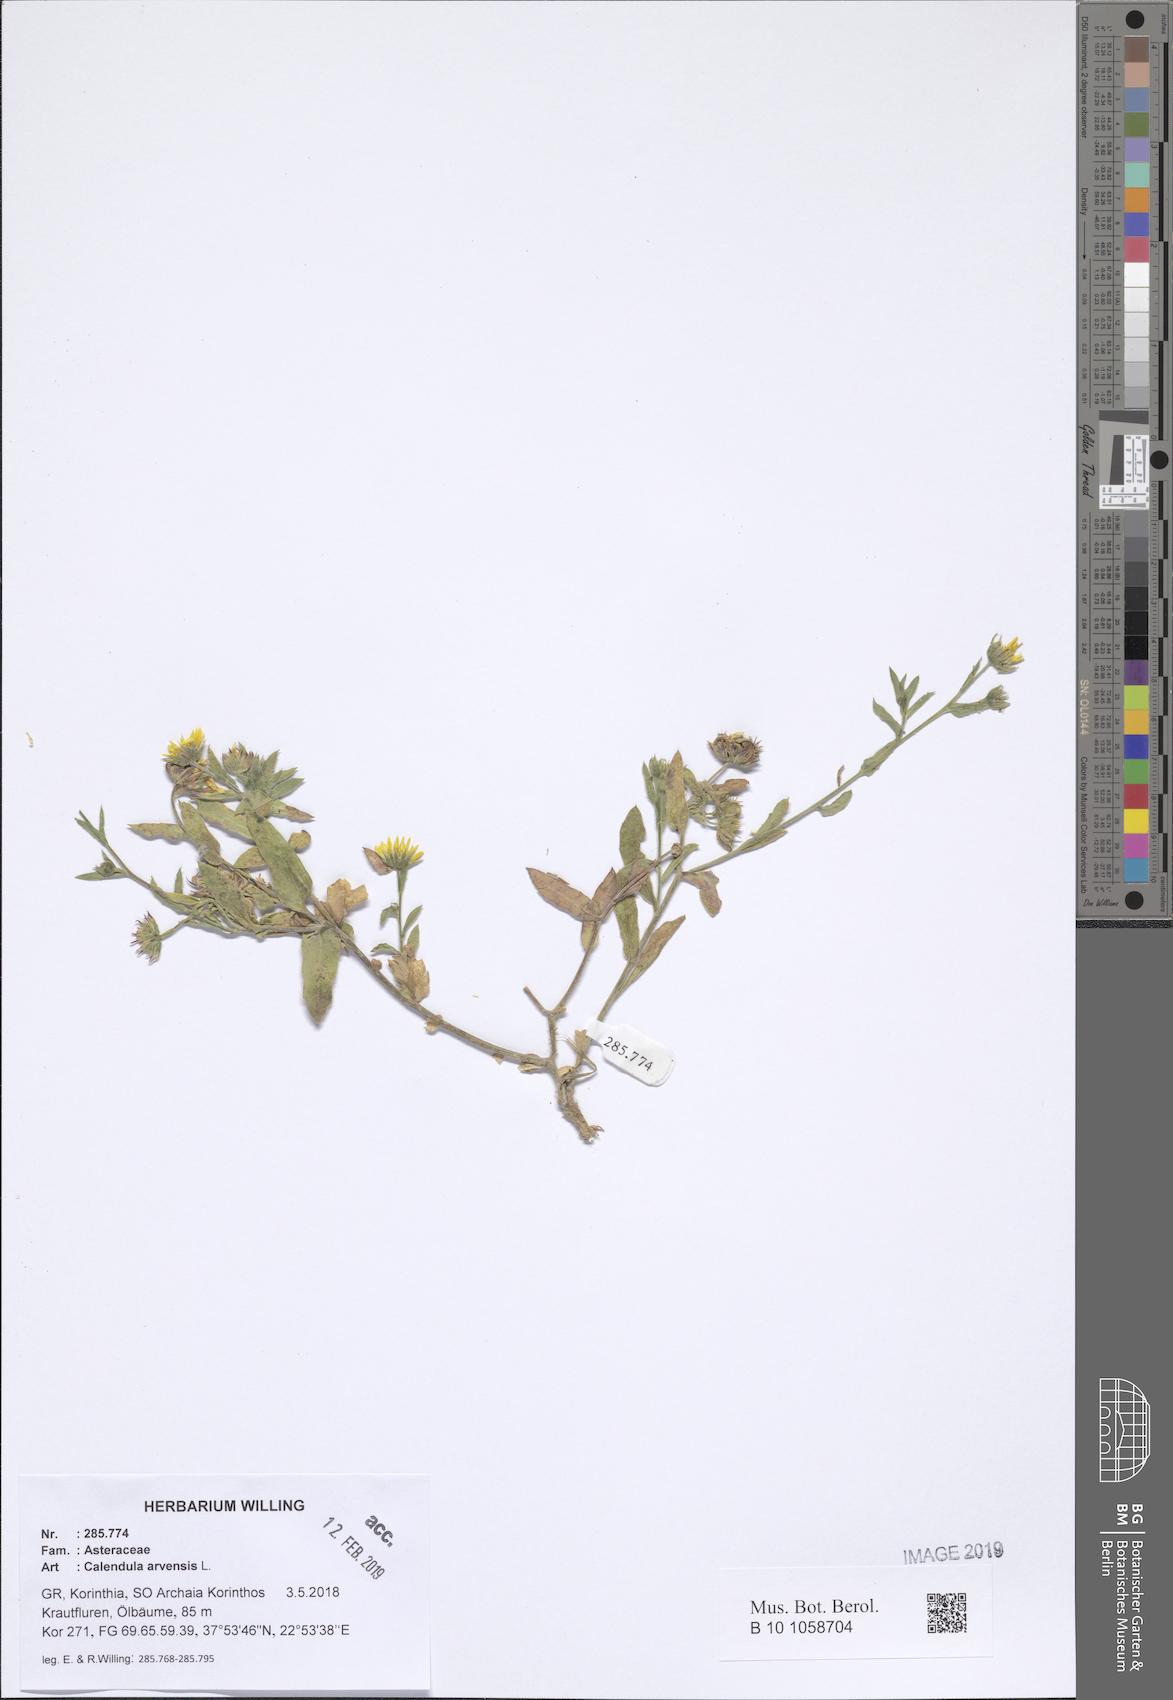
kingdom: Plantae
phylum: Tracheophyta
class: Magnoliopsida
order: Asterales
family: Asteraceae
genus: Calendula
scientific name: Calendula arvensis
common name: Field marigold
